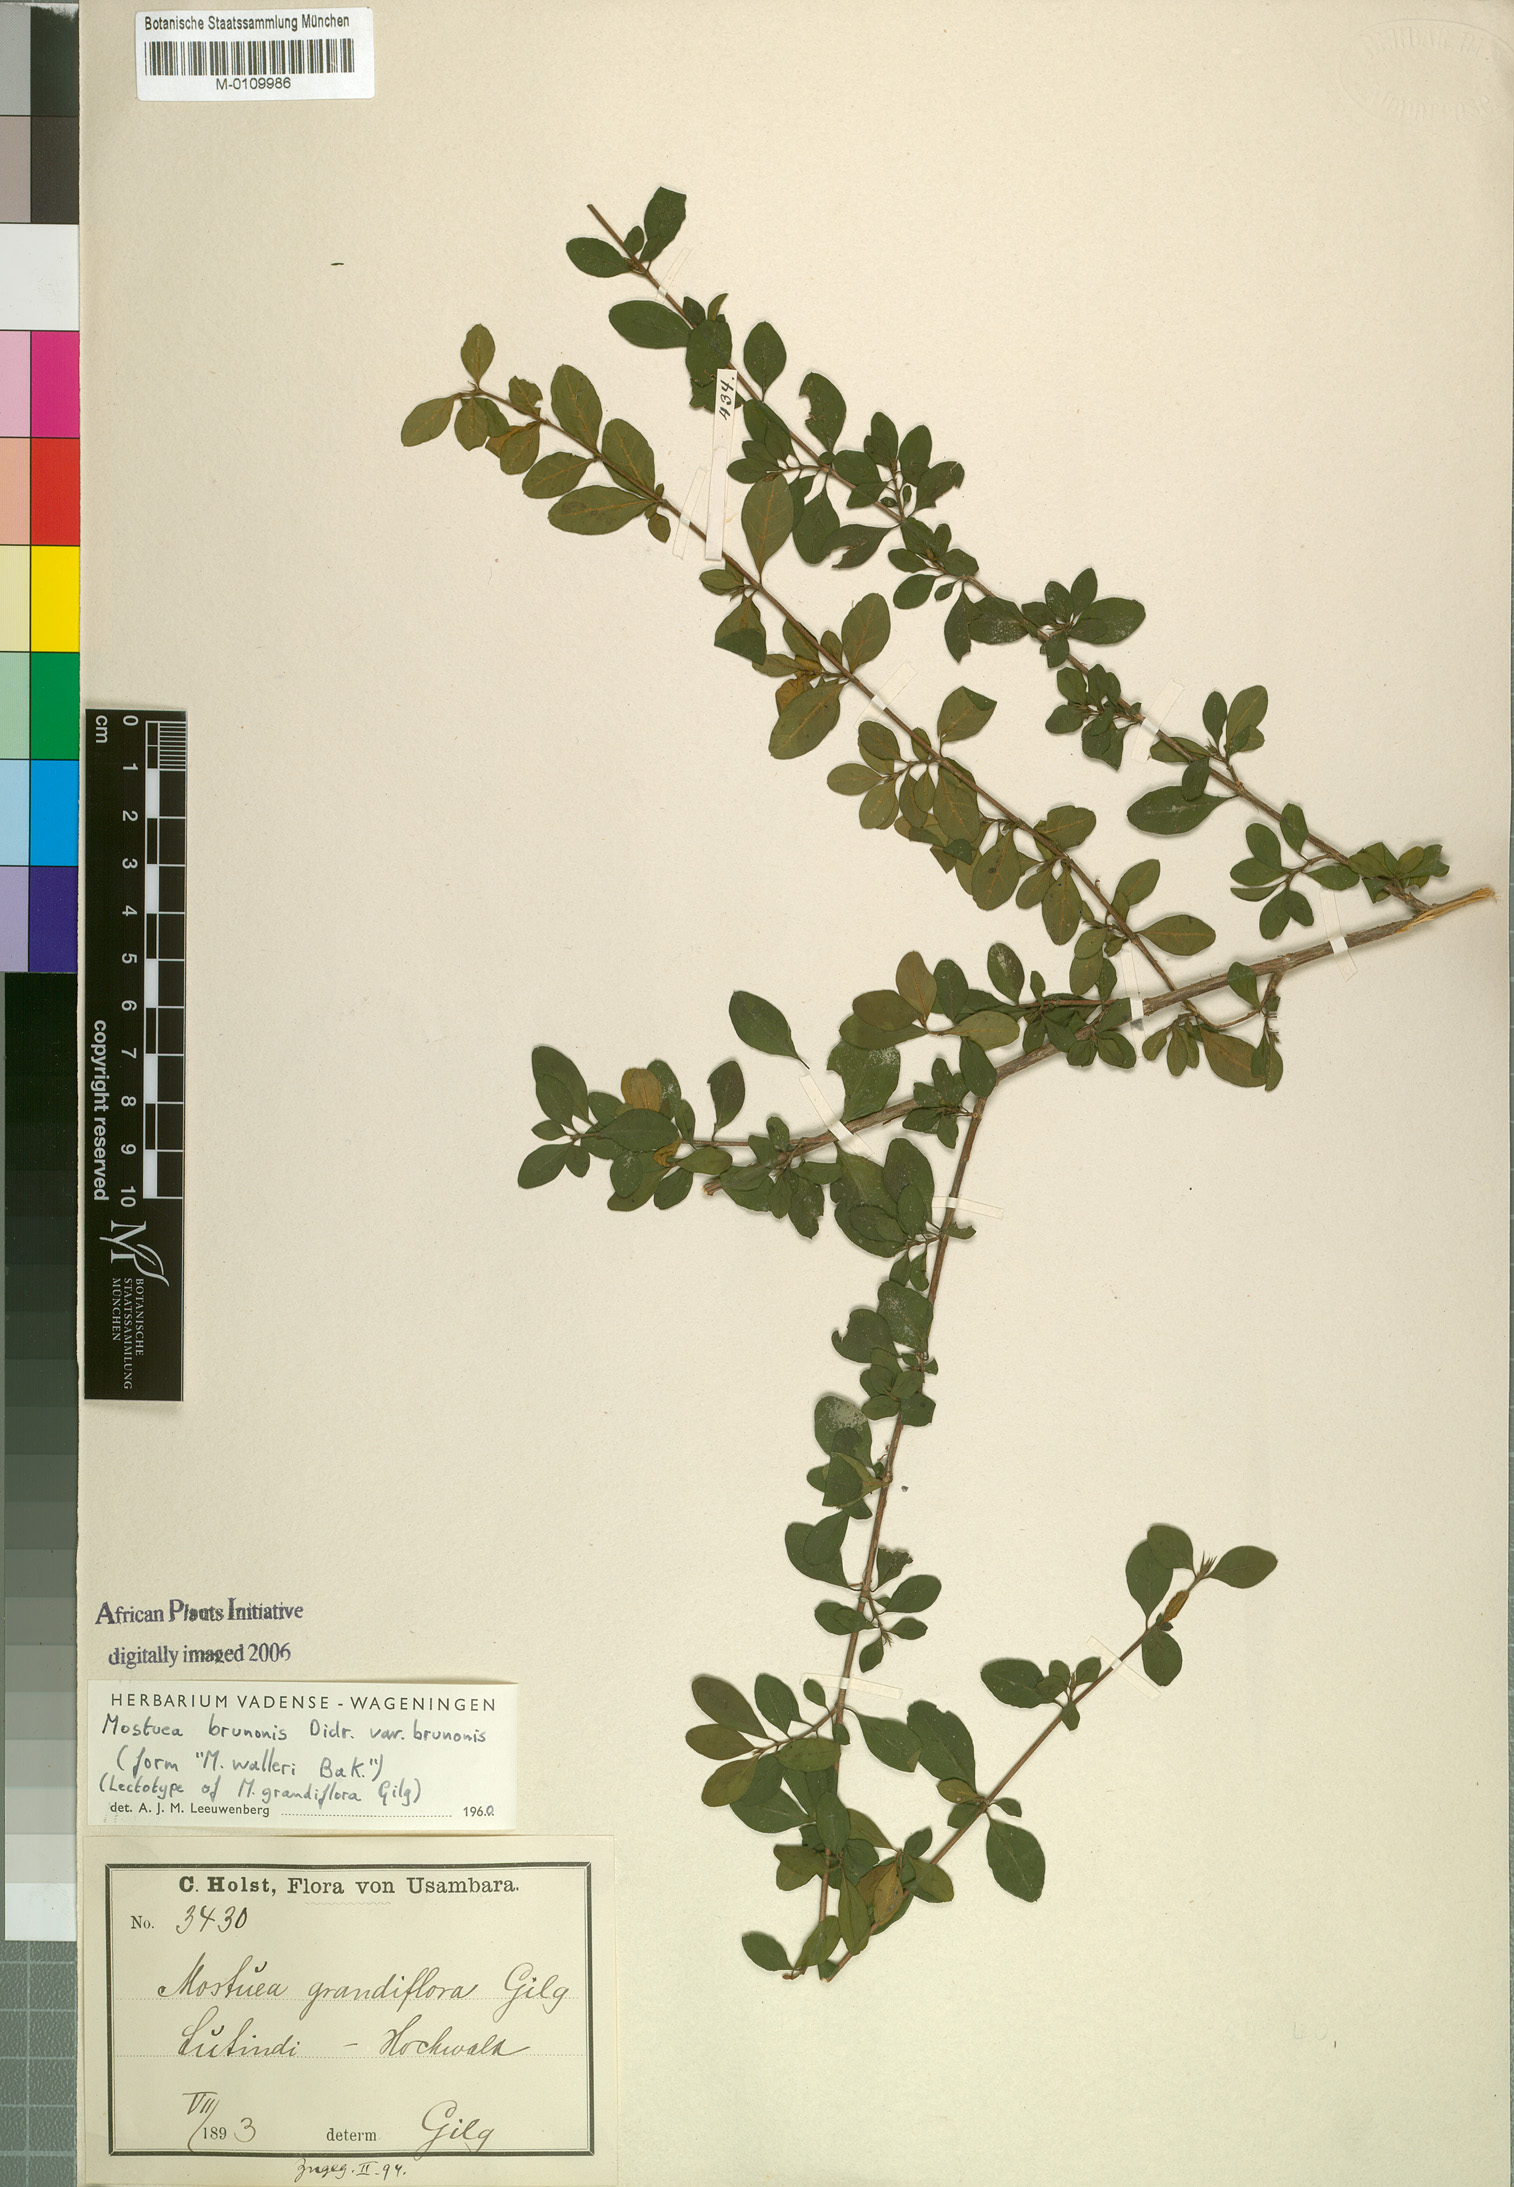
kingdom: Plantae
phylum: Tracheophyta
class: Magnoliopsida
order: Gentianales
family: Gelsemiaceae
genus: Mostuea
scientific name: Mostuea brunonis
